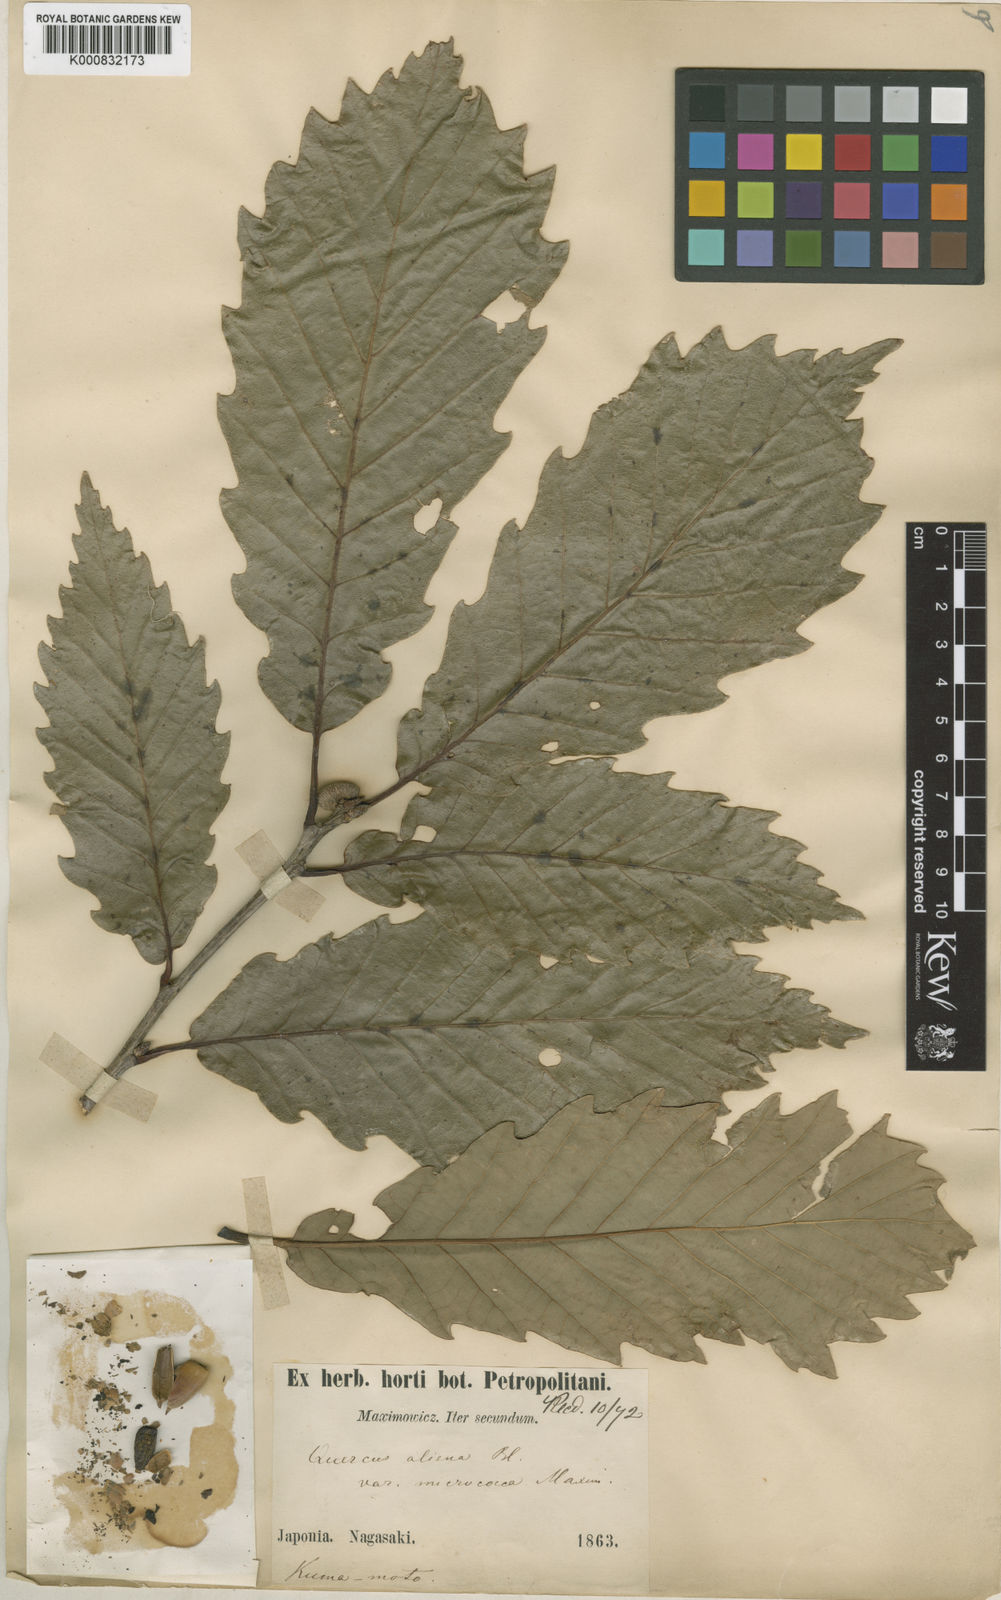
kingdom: Plantae
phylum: Tracheophyta
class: Magnoliopsida
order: Fagales
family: Fagaceae
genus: Quercus
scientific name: Quercus aliena
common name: Oriental white oak
